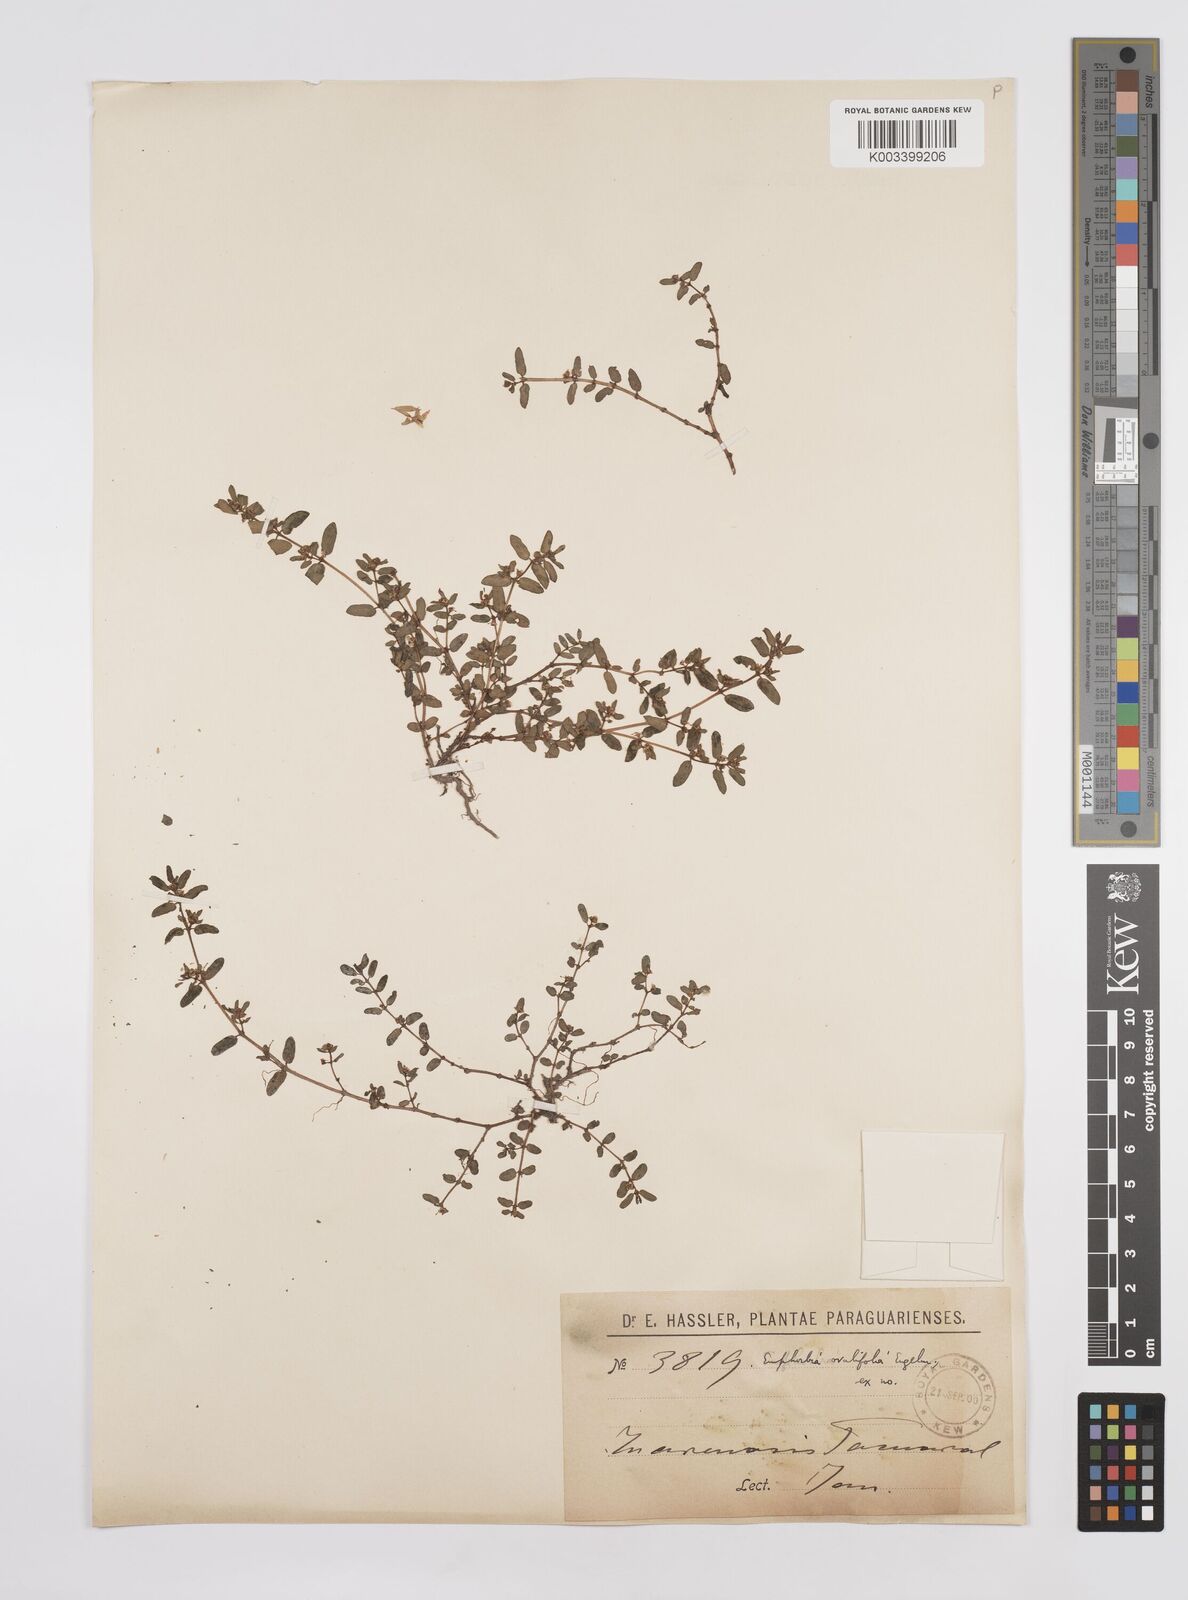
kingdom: Plantae
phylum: Tracheophyta
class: Magnoliopsida
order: Malpighiales
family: Euphorbiaceae
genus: Euphorbia
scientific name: Euphorbia indica
